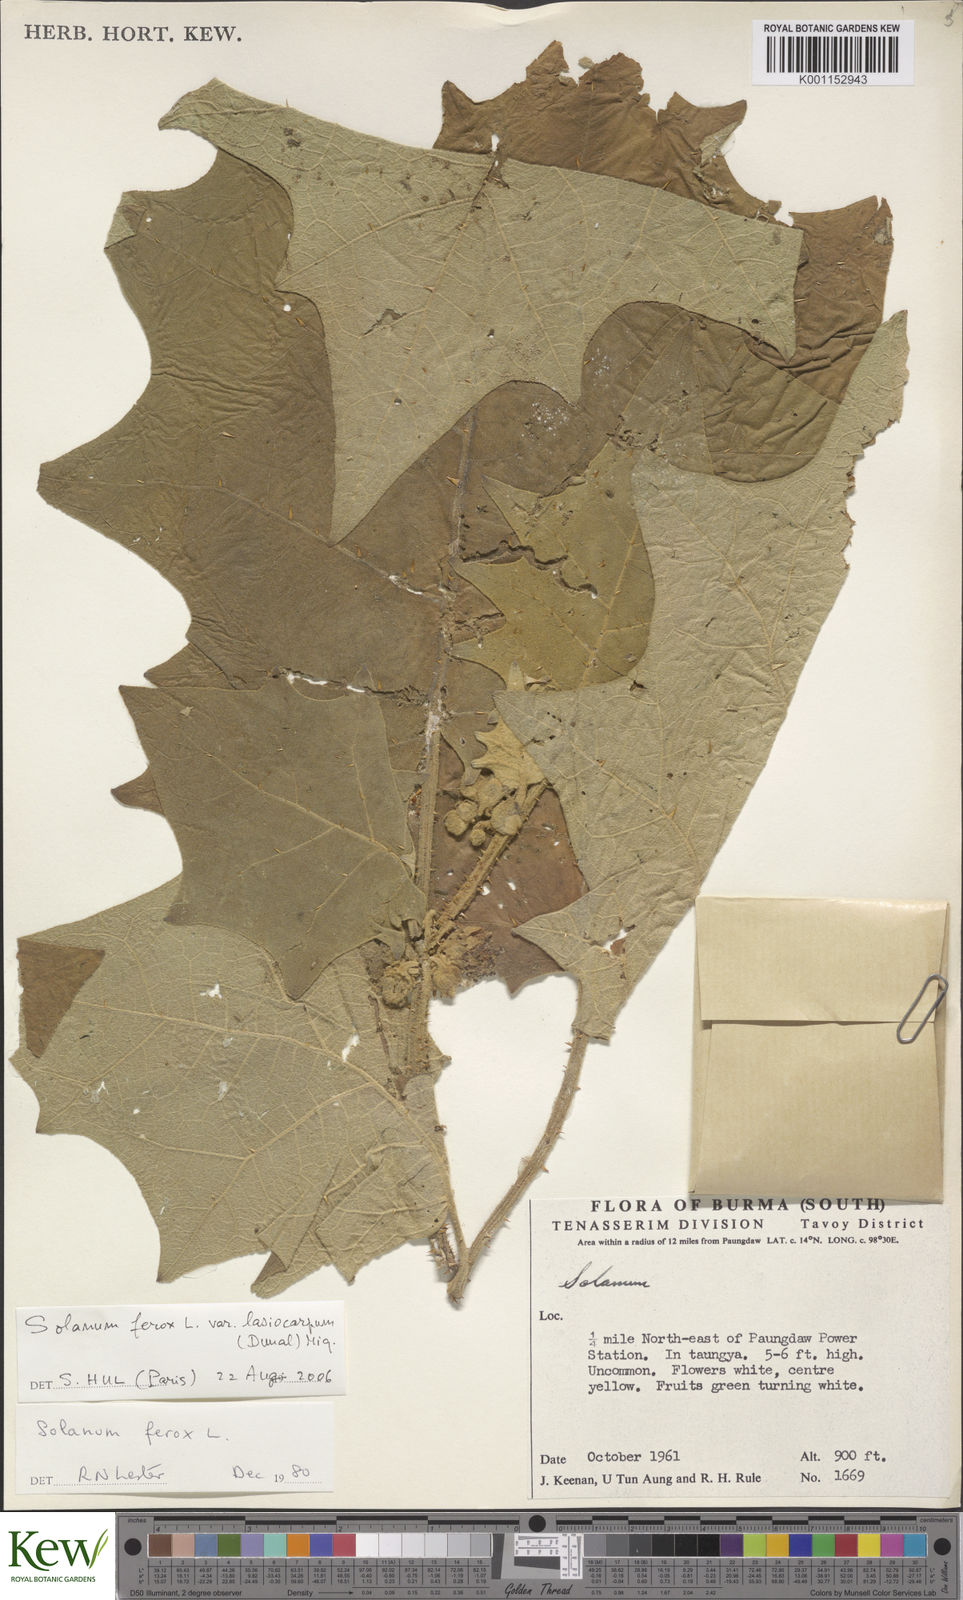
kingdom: Plantae
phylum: Tracheophyta
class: Magnoliopsida
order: Solanales
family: Solanaceae
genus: Solanum
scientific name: Solanum
